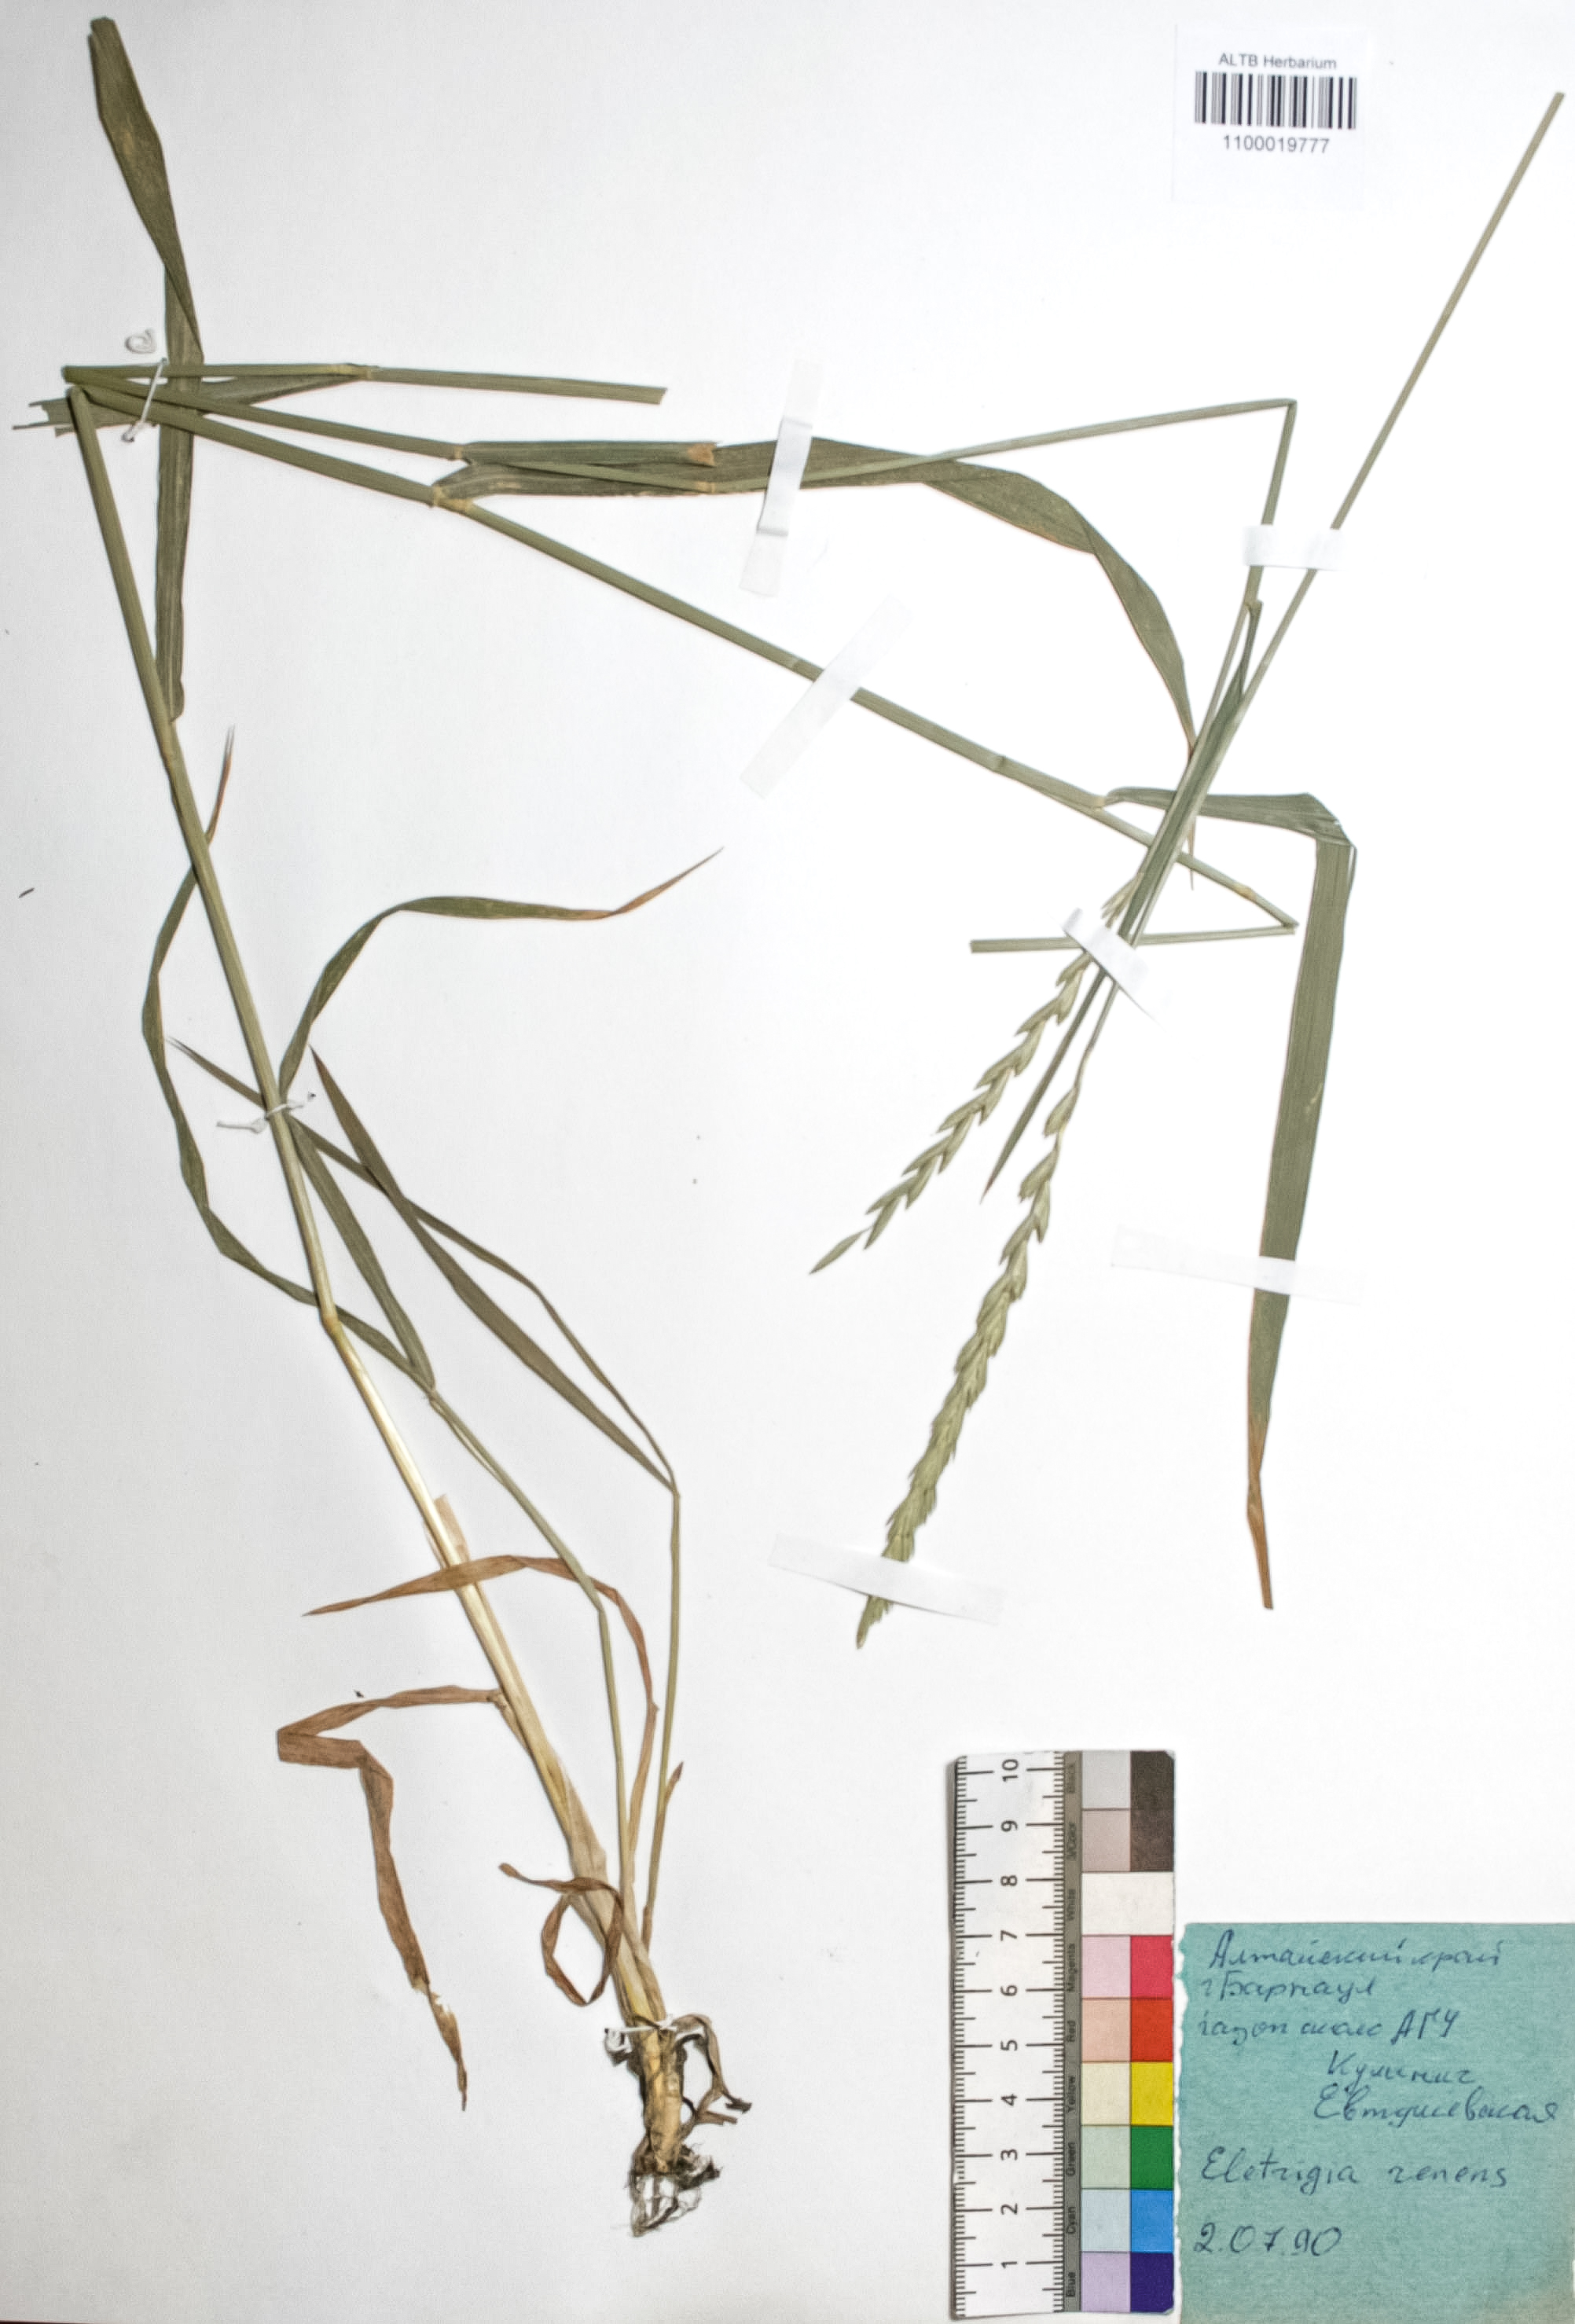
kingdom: Plantae
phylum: Tracheophyta
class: Liliopsida
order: Poales
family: Poaceae
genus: Elymus
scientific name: Elymus repens
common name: Quackgrass
